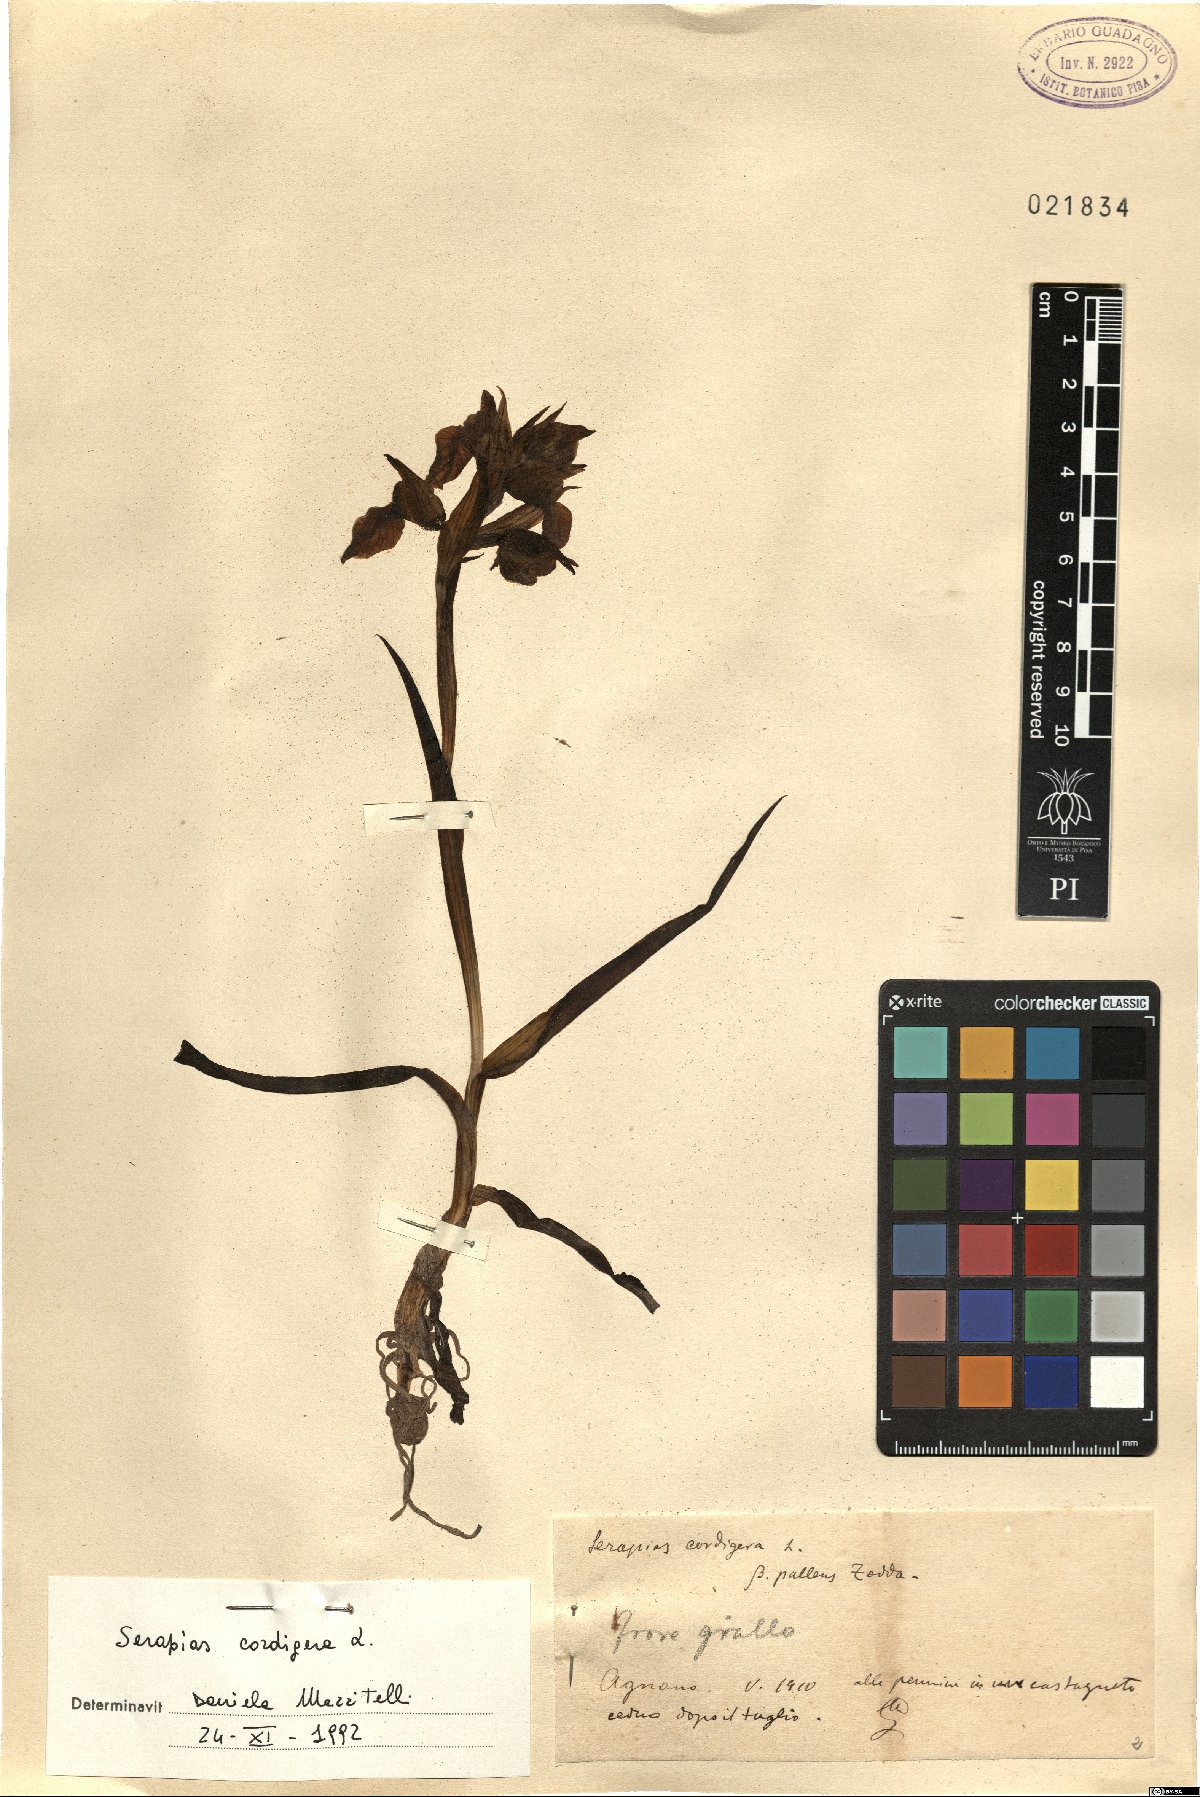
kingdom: Plantae
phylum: Tracheophyta
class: Liliopsida
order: Asparagales
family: Orchidaceae
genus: Serapias
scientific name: Serapias cordigera
